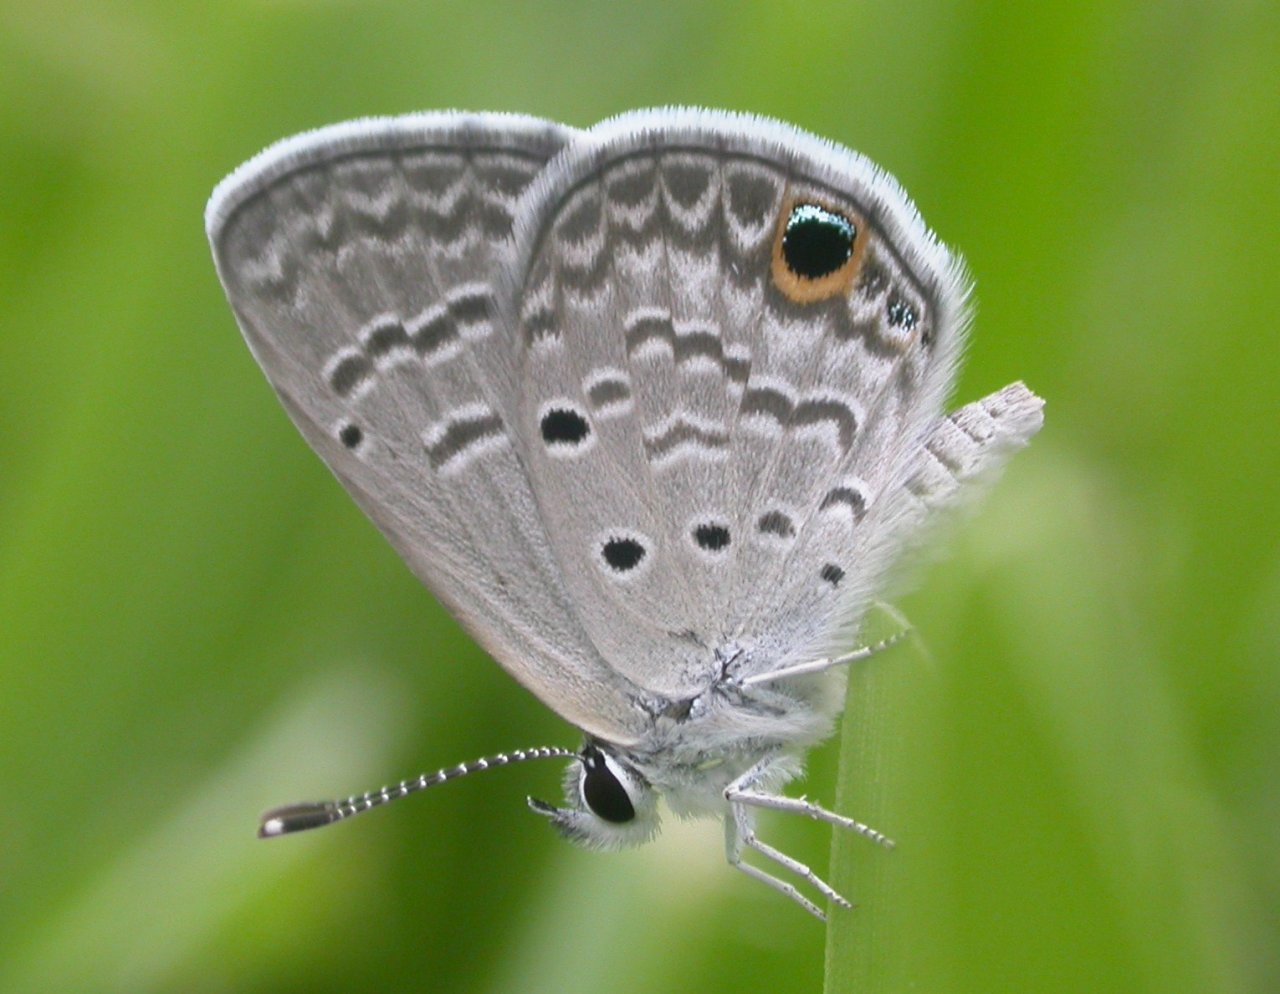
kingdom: Animalia
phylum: Arthropoda
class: Insecta
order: Lepidoptera
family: Lycaenidae
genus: Hemiargus
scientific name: Hemiargus ceraunus
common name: Ceraunus Blue
